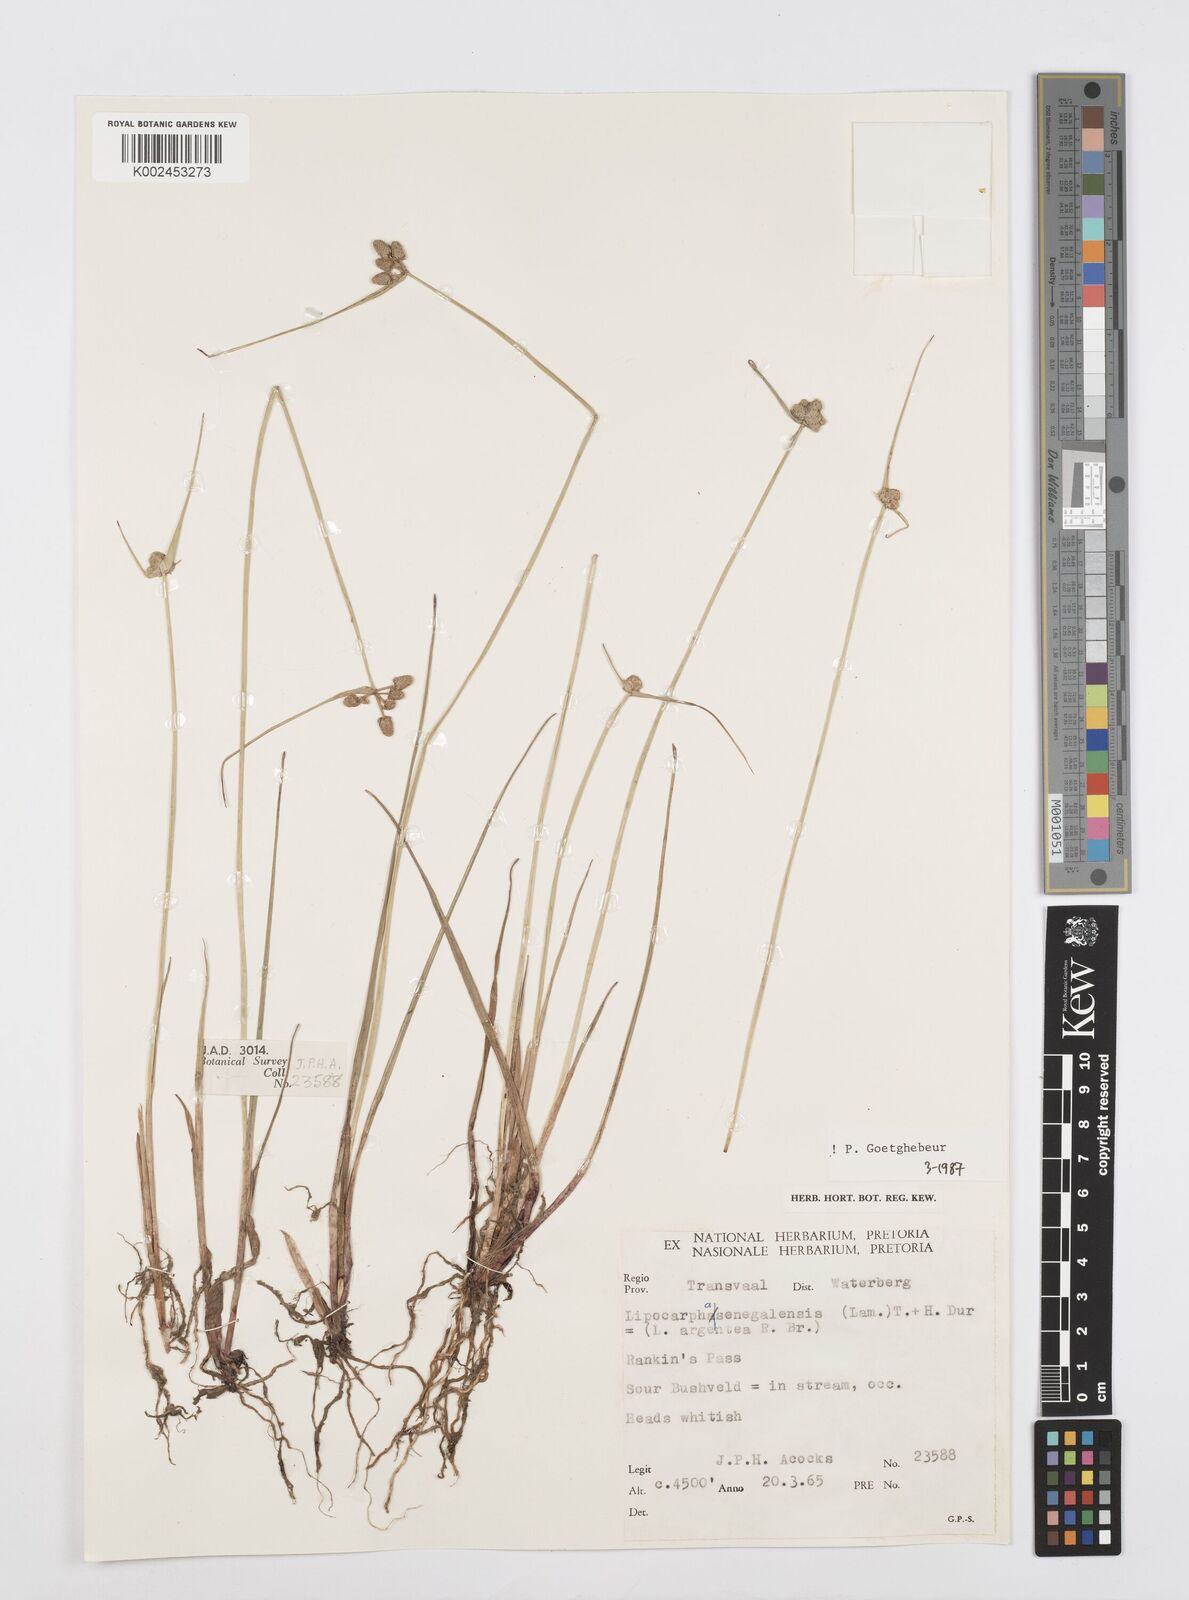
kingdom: Plantae
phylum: Tracheophyta
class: Liliopsida
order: Poales
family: Cyperaceae
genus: Cyperus
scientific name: Cyperus albescens
